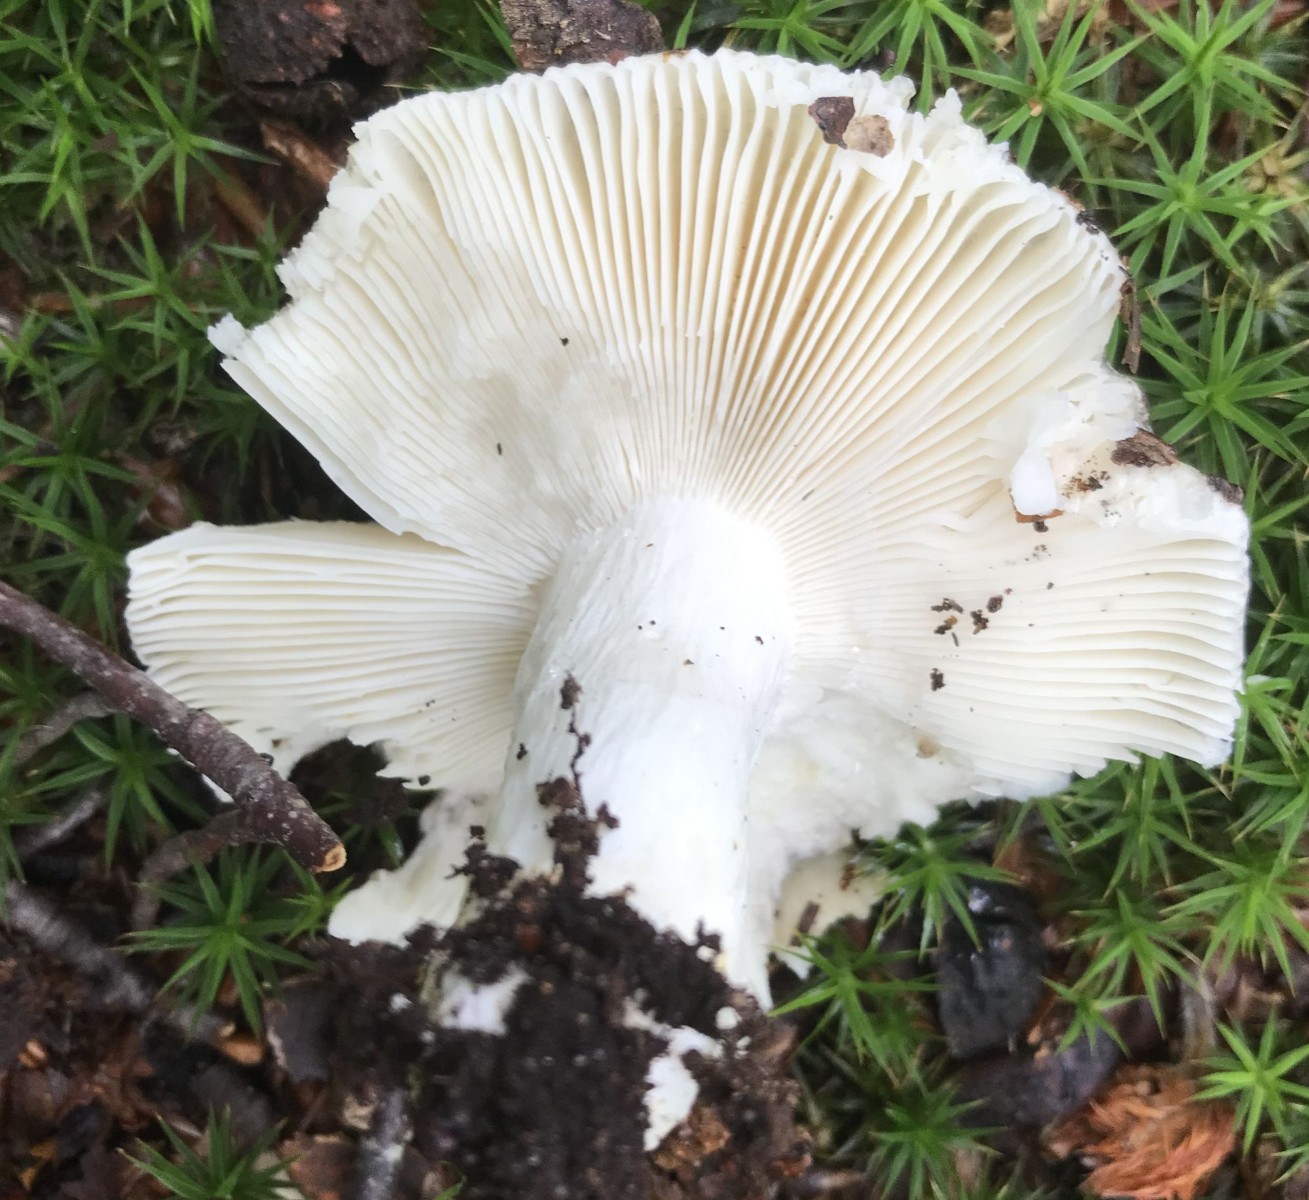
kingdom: Fungi
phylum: Basidiomycota
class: Agaricomycetes
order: Russulales
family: Russulaceae
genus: Russula
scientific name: Russula
